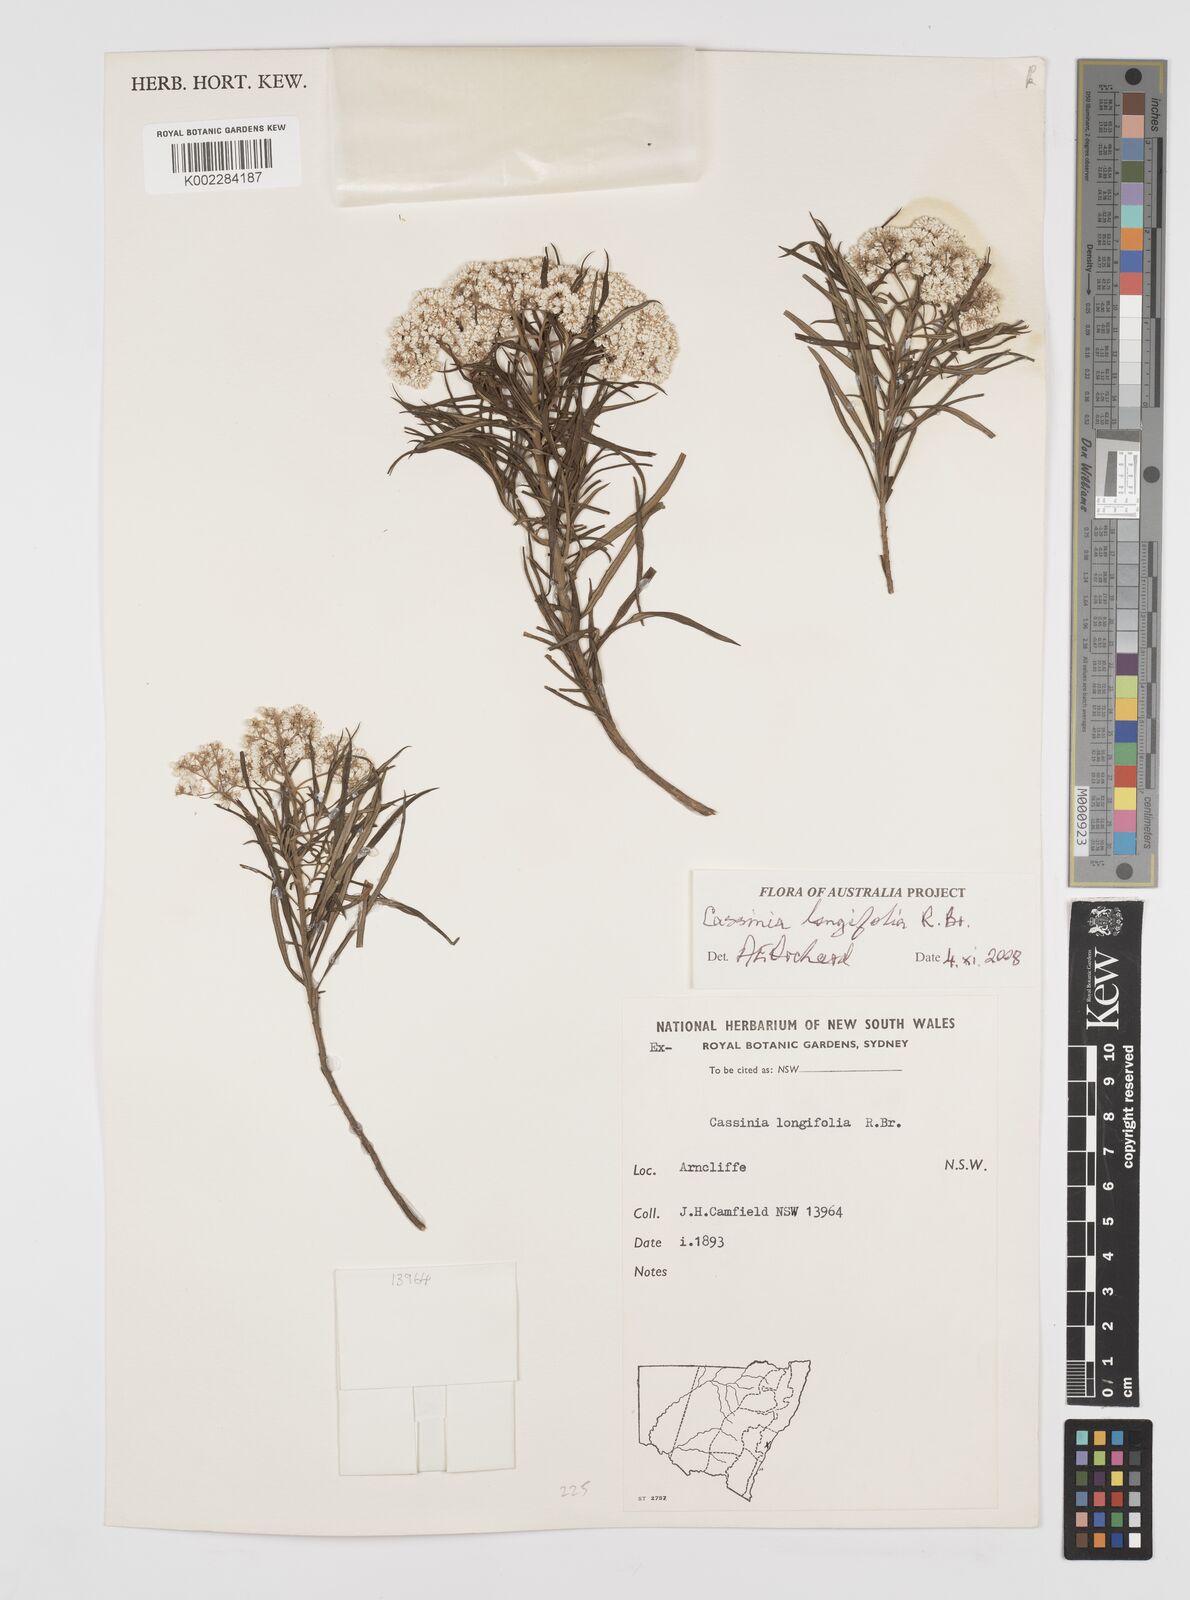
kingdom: Plantae
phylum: Tracheophyta
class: Magnoliopsida
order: Asterales
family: Asteraceae
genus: Cassinia
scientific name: Cassinia longifolia
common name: Longleaf-dogwood
